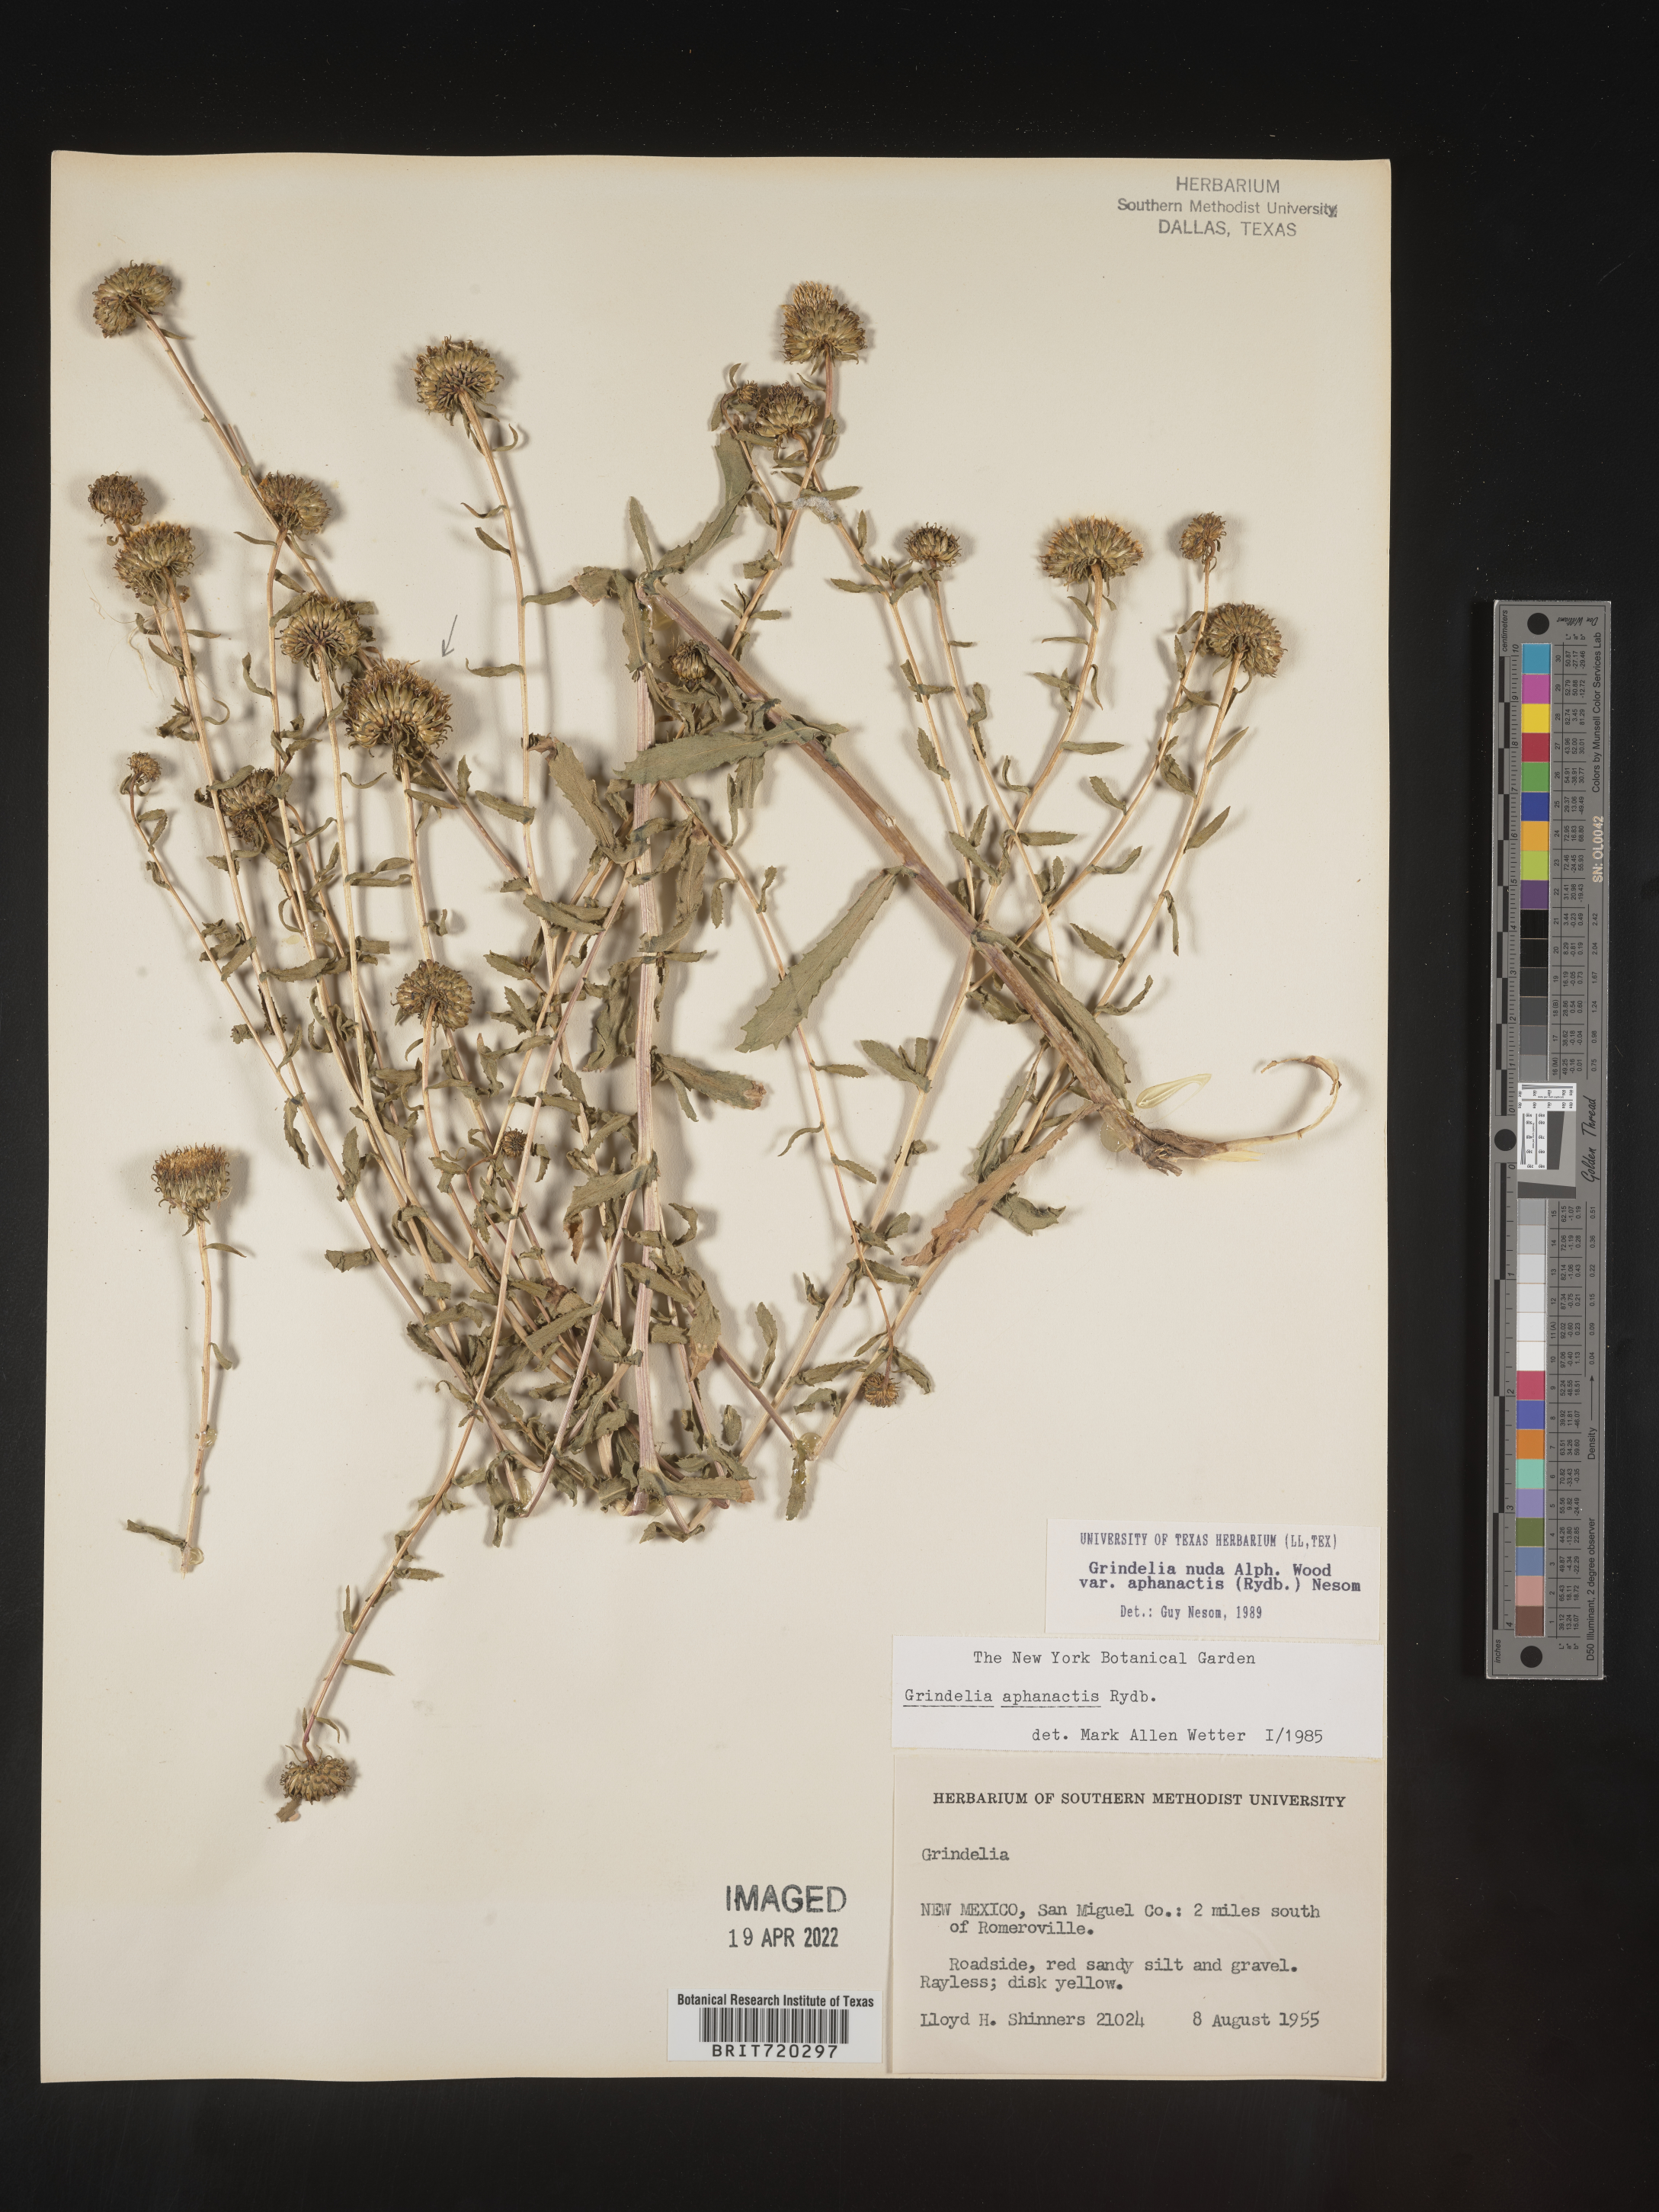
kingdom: Plantae
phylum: Tracheophyta
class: Magnoliopsida
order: Asterales
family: Asteraceae
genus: Grindelia
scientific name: Grindelia nuda
